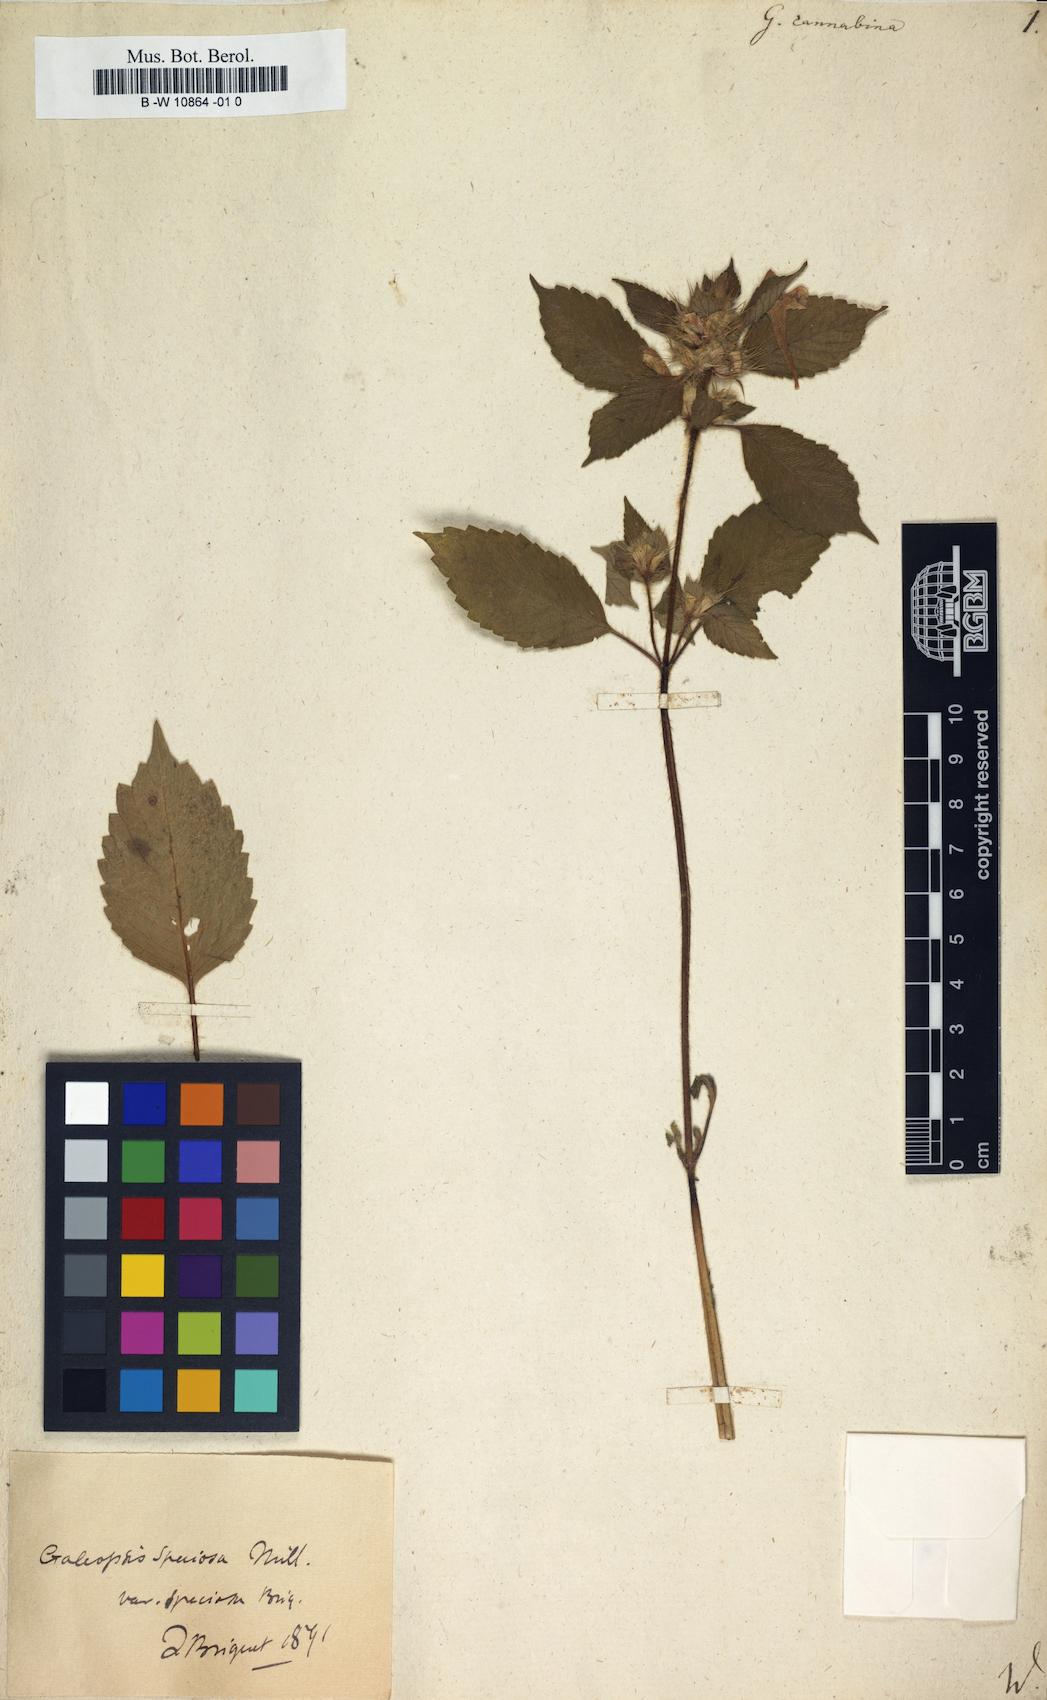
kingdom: Plantae
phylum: Tracheophyta
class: Magnoliopsida
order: Lamiales
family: Lamiaceae
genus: Galeopsis
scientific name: Galeopsis segetum
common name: Downy hemp-nettle
